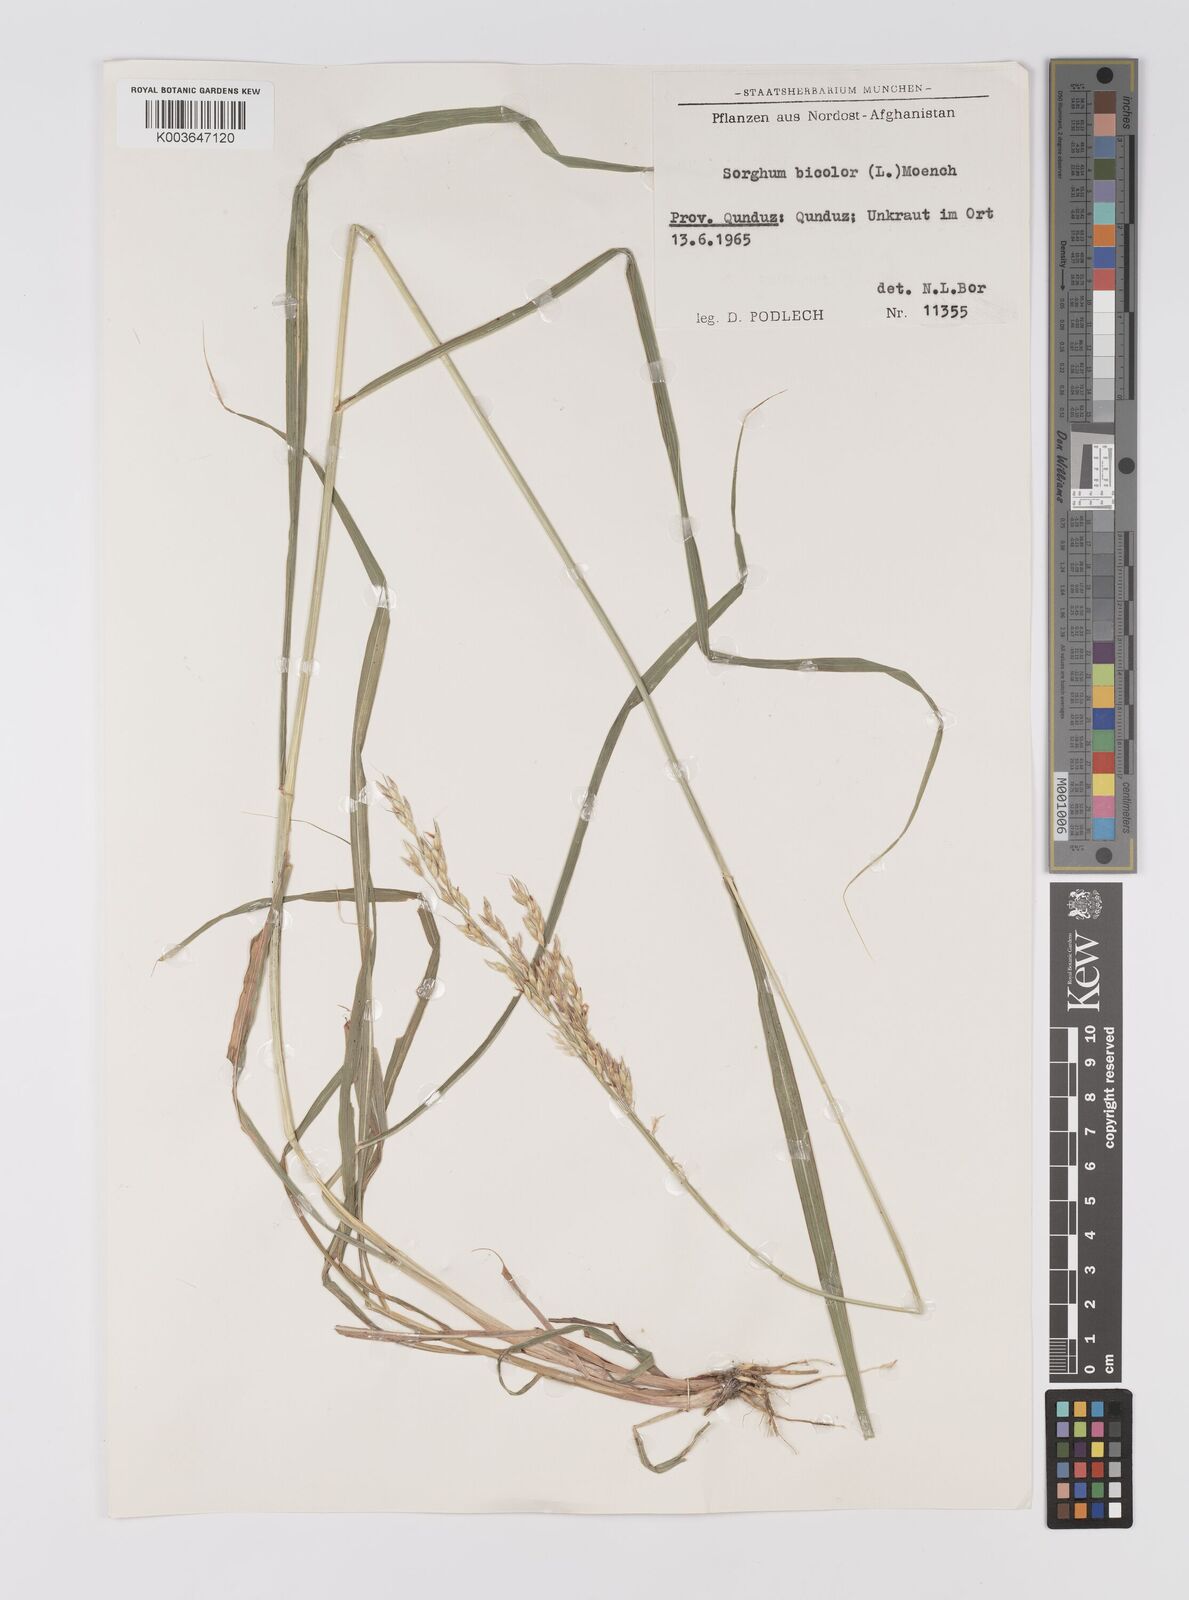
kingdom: Plantae
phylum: Tracheophyta
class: Liliopsida
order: Poales
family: Poaceae
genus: Sorghum
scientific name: Sorghum drummondii
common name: Sudangrass
